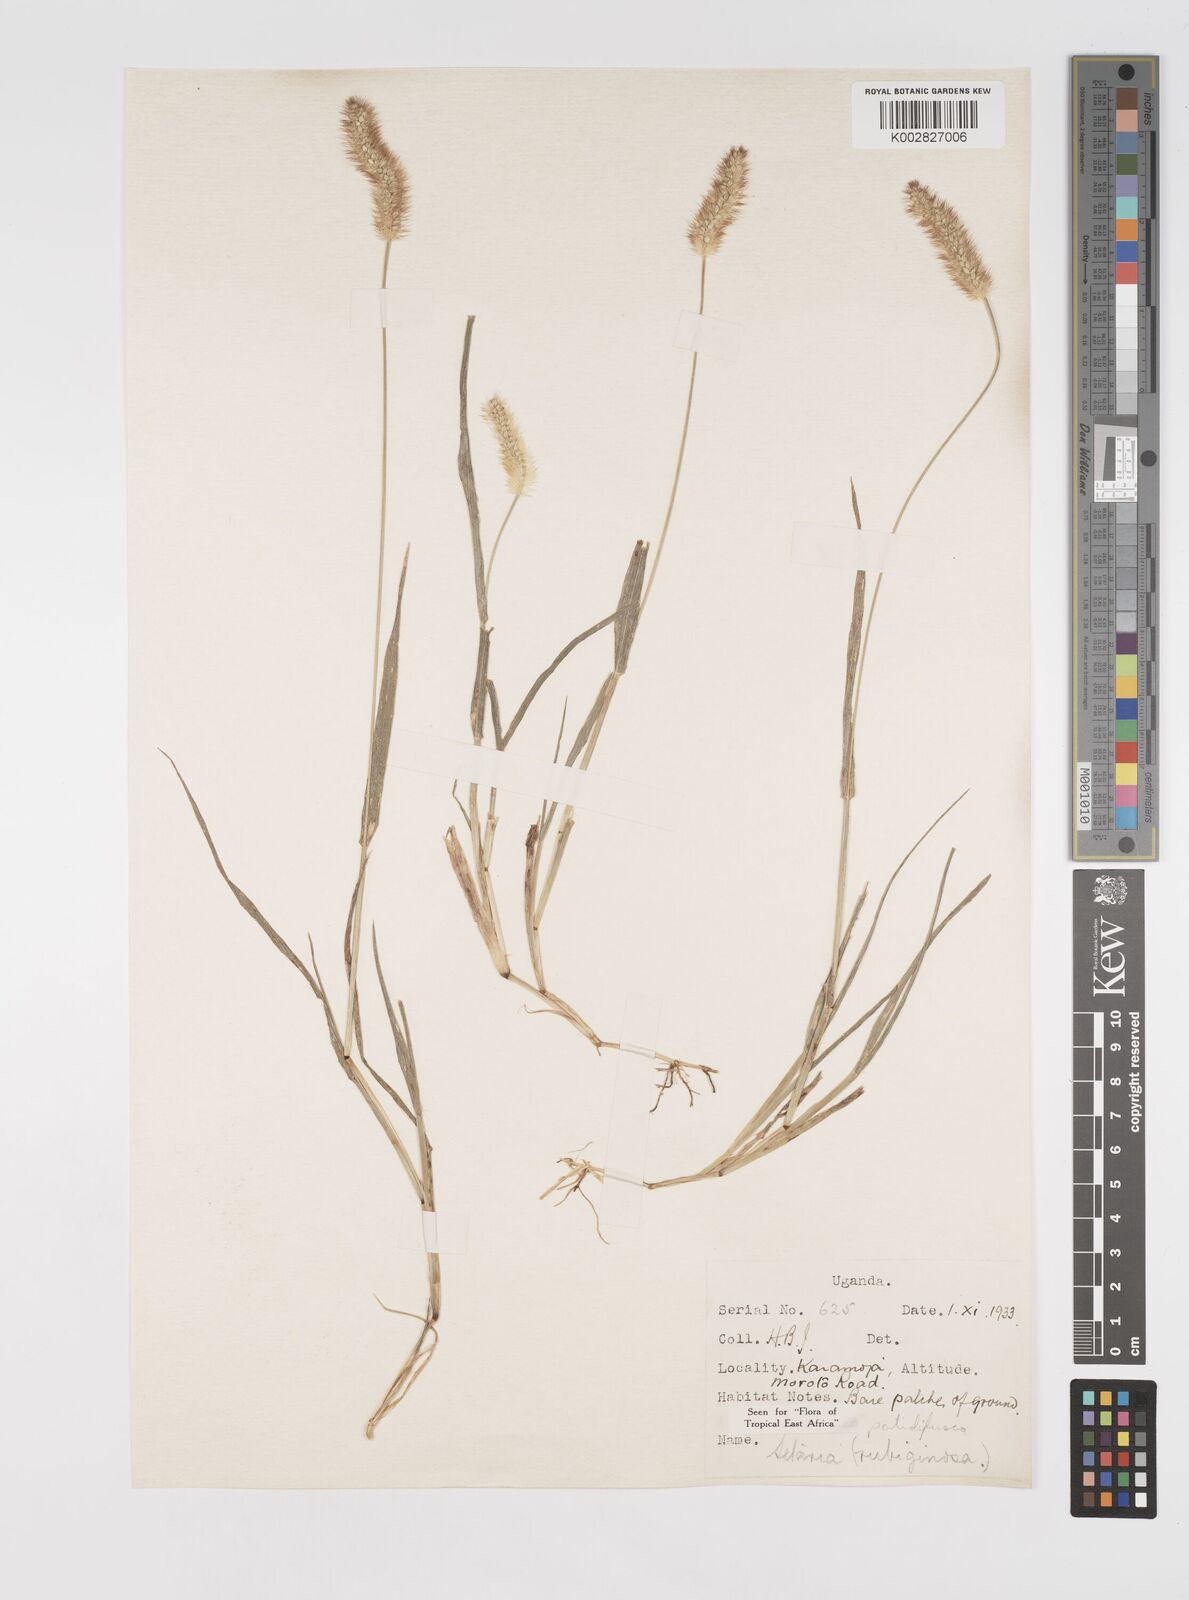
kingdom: Plantae
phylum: Tracheophyta
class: Liliopsida
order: Poales
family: Poaceae
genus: Setaria
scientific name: Setaria pumila
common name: Yellow bristle-grass
